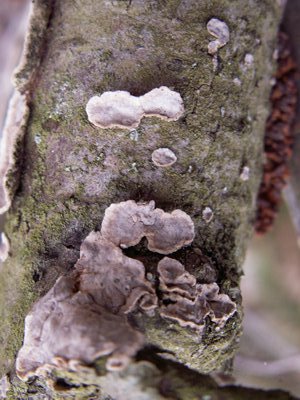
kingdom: Fungi
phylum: Basidiomycota
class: Agaricomycetes
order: Russulales
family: Stereaceae
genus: Stereum
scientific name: Stereum rugosum
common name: rynket lædersvamp
